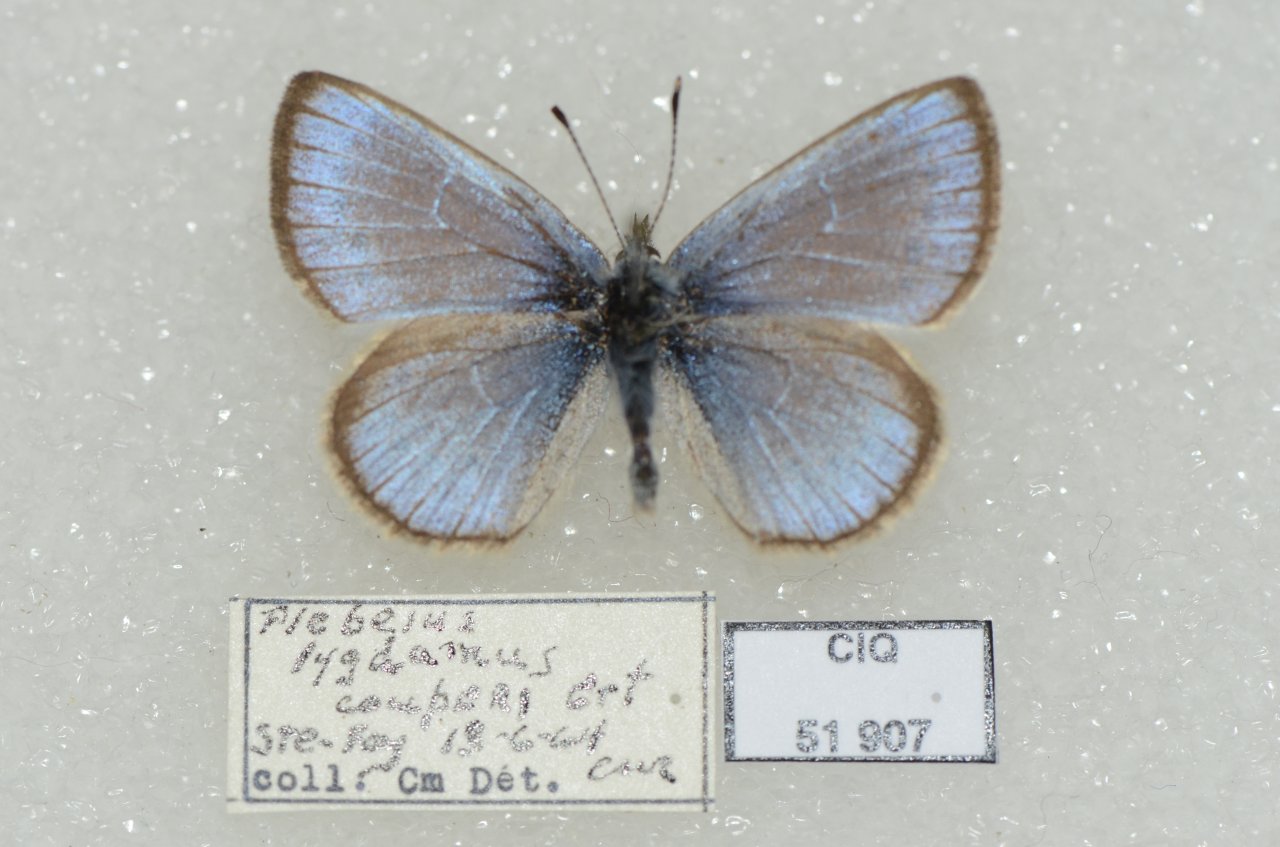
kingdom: Animalia
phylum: Arthropoda
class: Insecta
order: Lepidoptera
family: Lycaenidae
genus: Glaucopsyche
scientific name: Glaucopsyche lygdamus
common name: Silvery Blue
